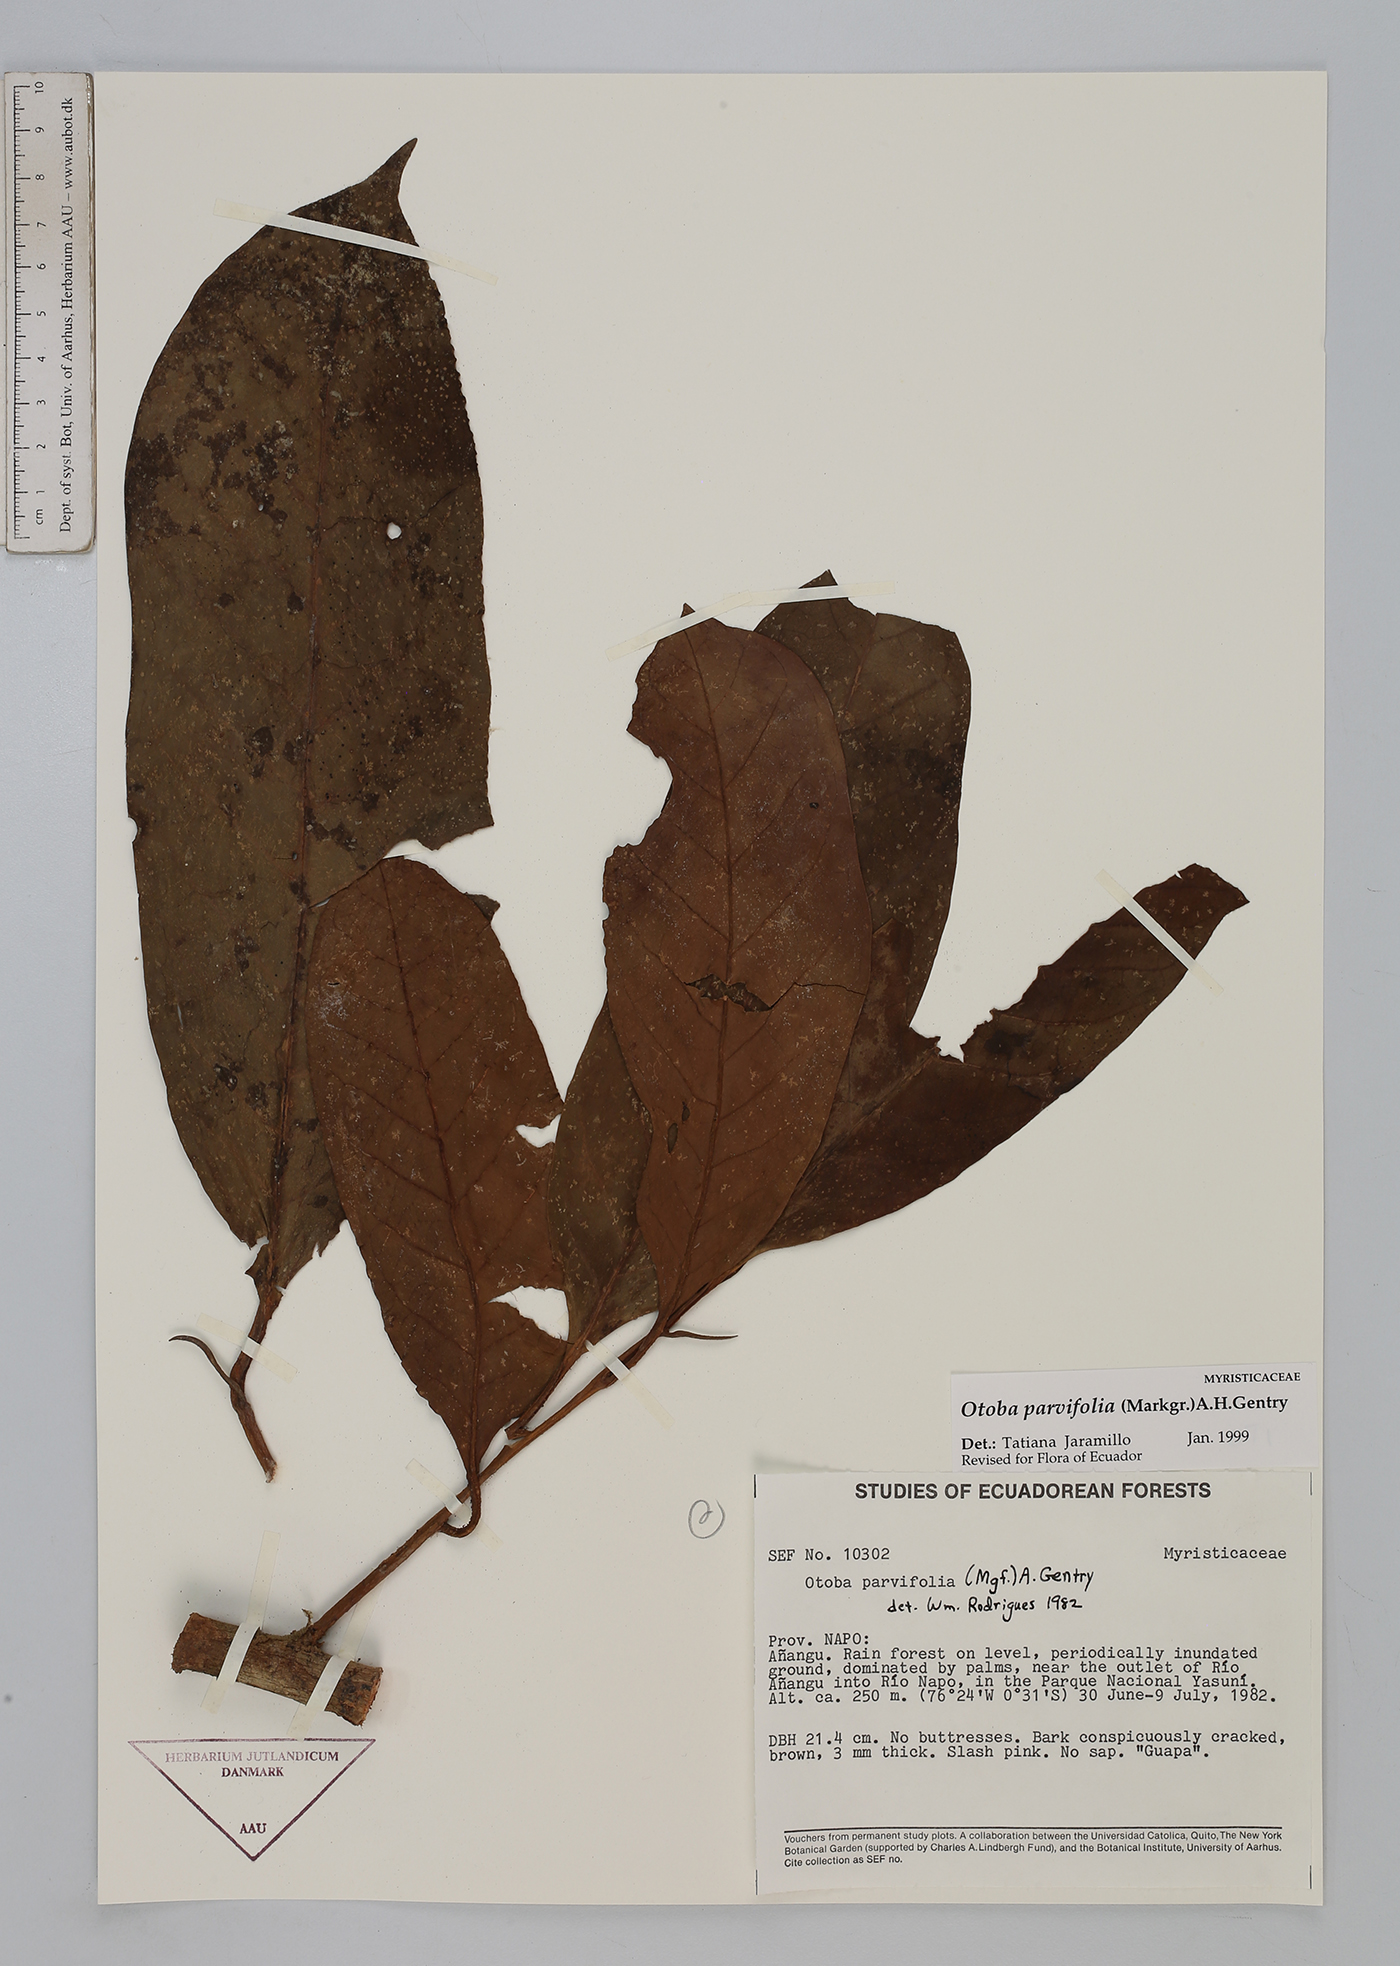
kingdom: Plantae
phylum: Tracheophyta
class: Magnoliopsida
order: Magnoliales
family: Myristicaceae
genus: Otoba
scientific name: Otoba parvifolia
